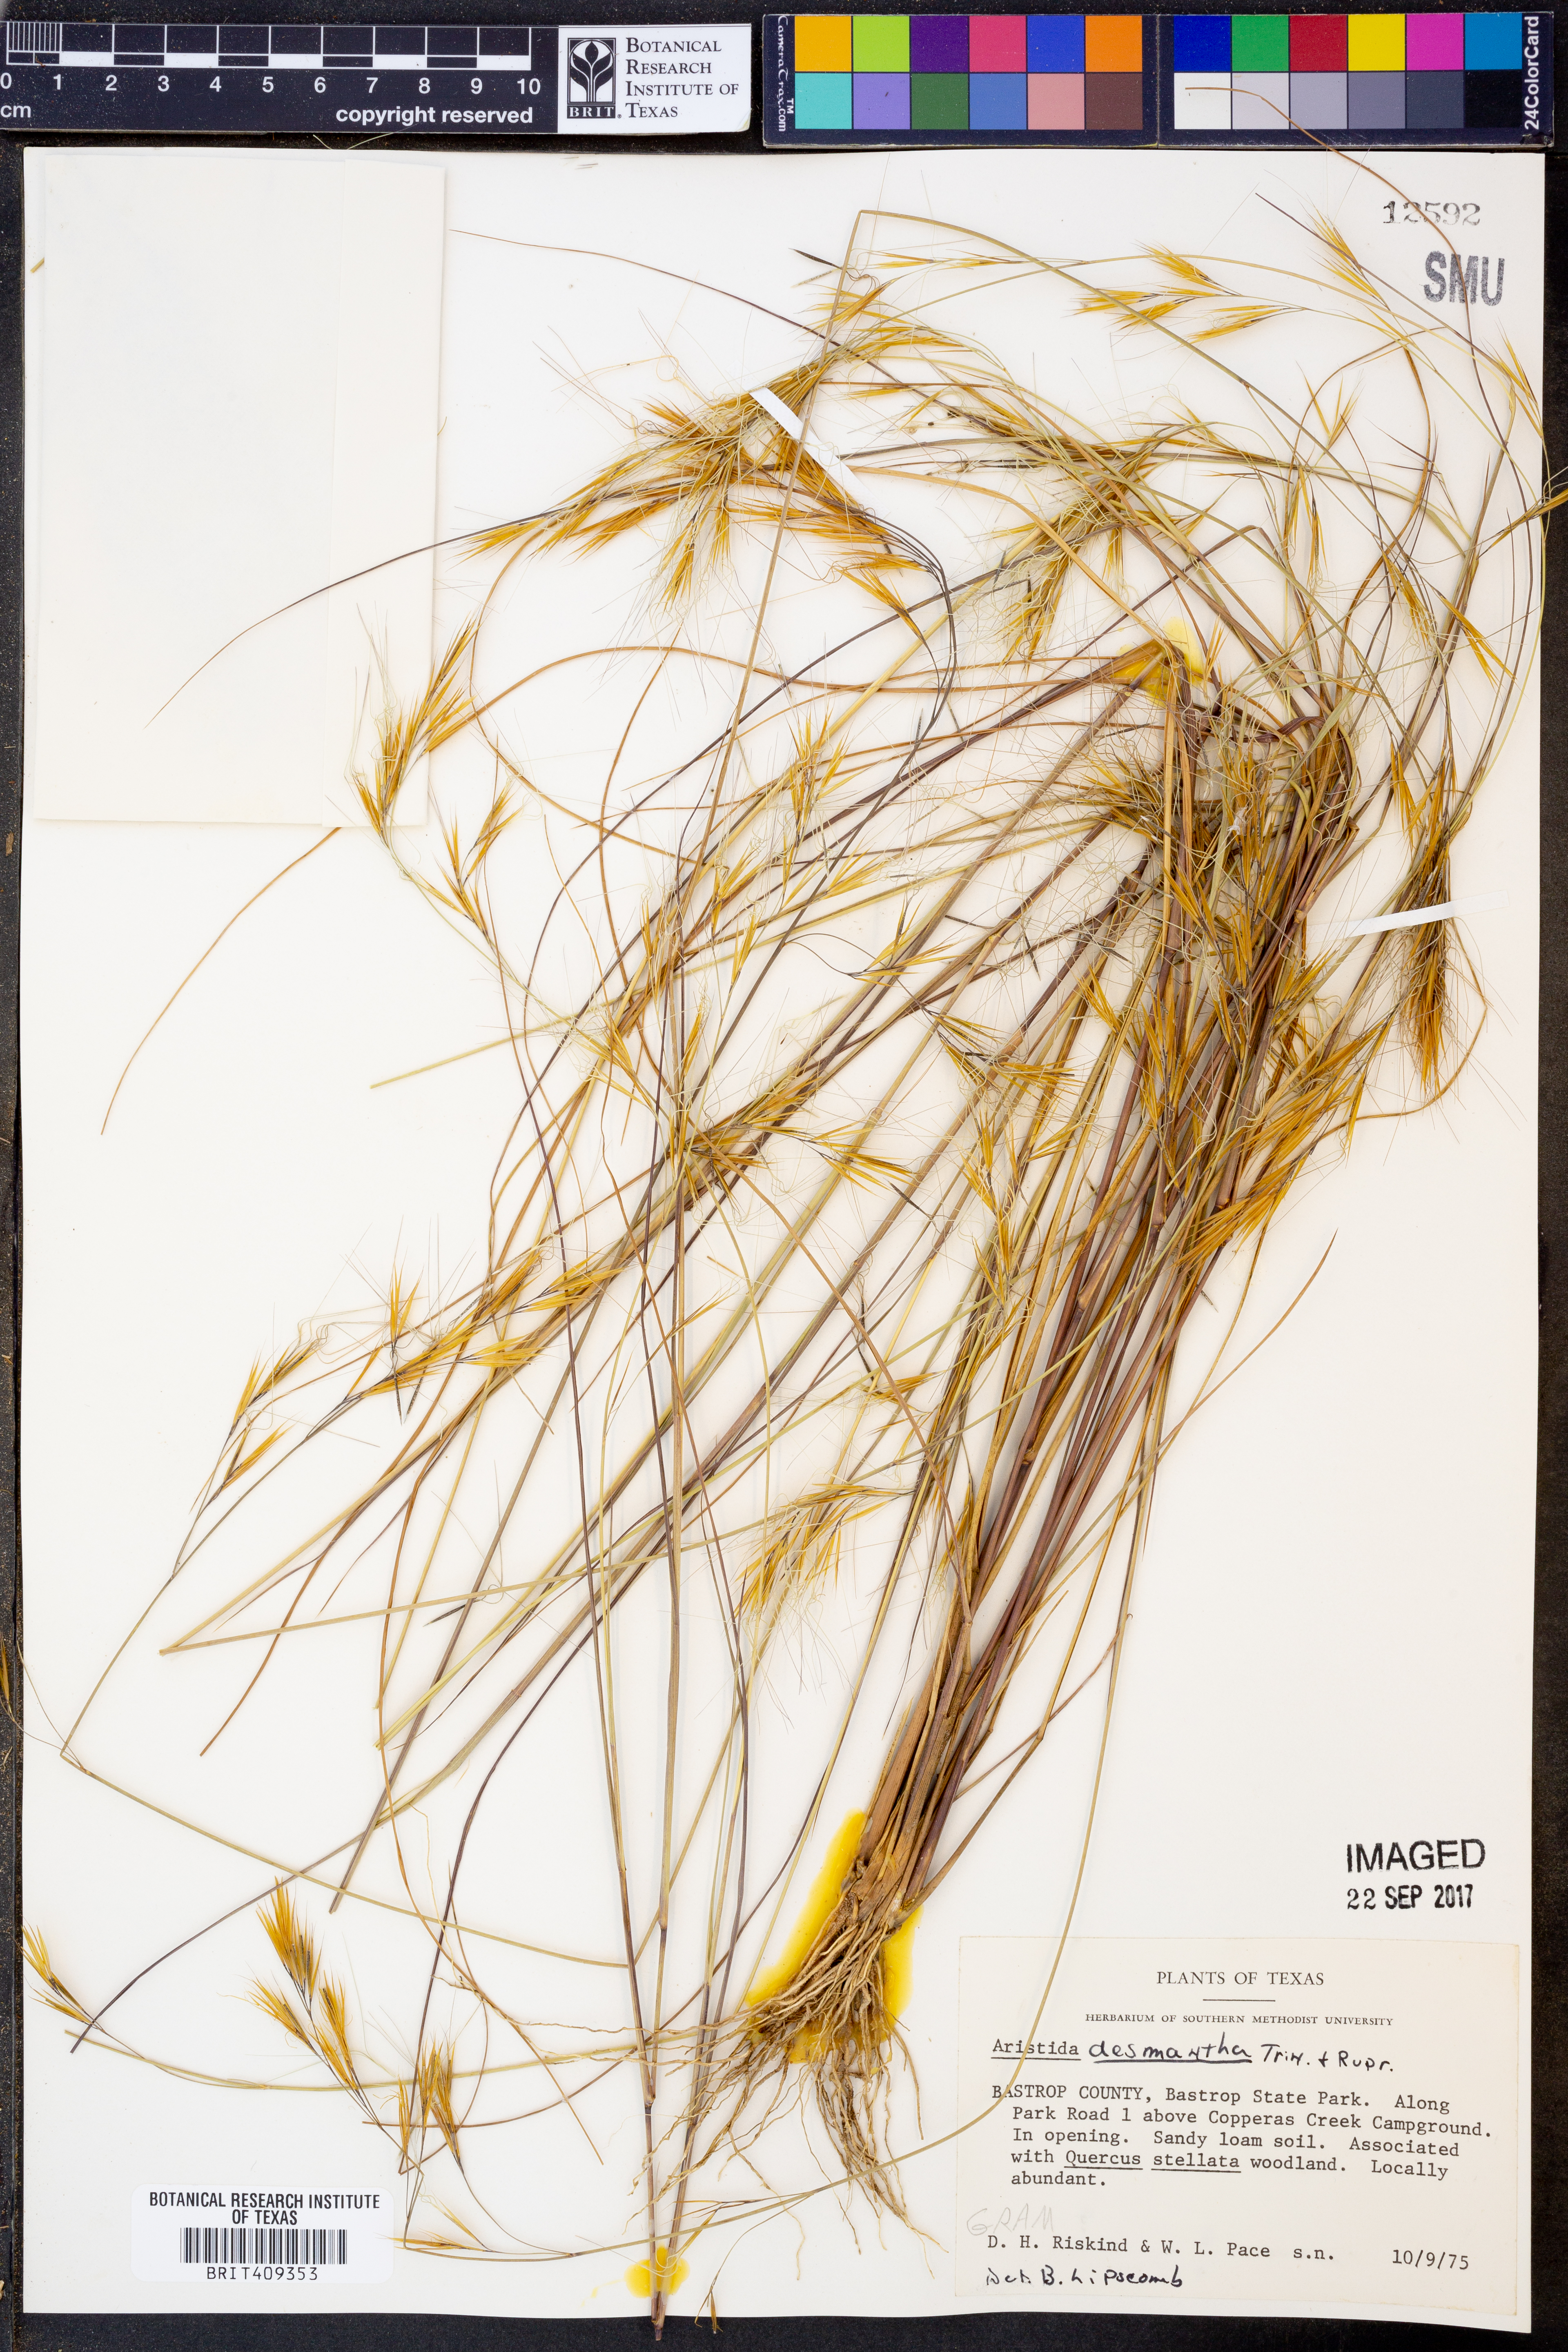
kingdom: Plantae
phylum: Tracheophyta
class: Liliopsida
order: Poales
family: Poaceae
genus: Aristida
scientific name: Aristida desmantha
